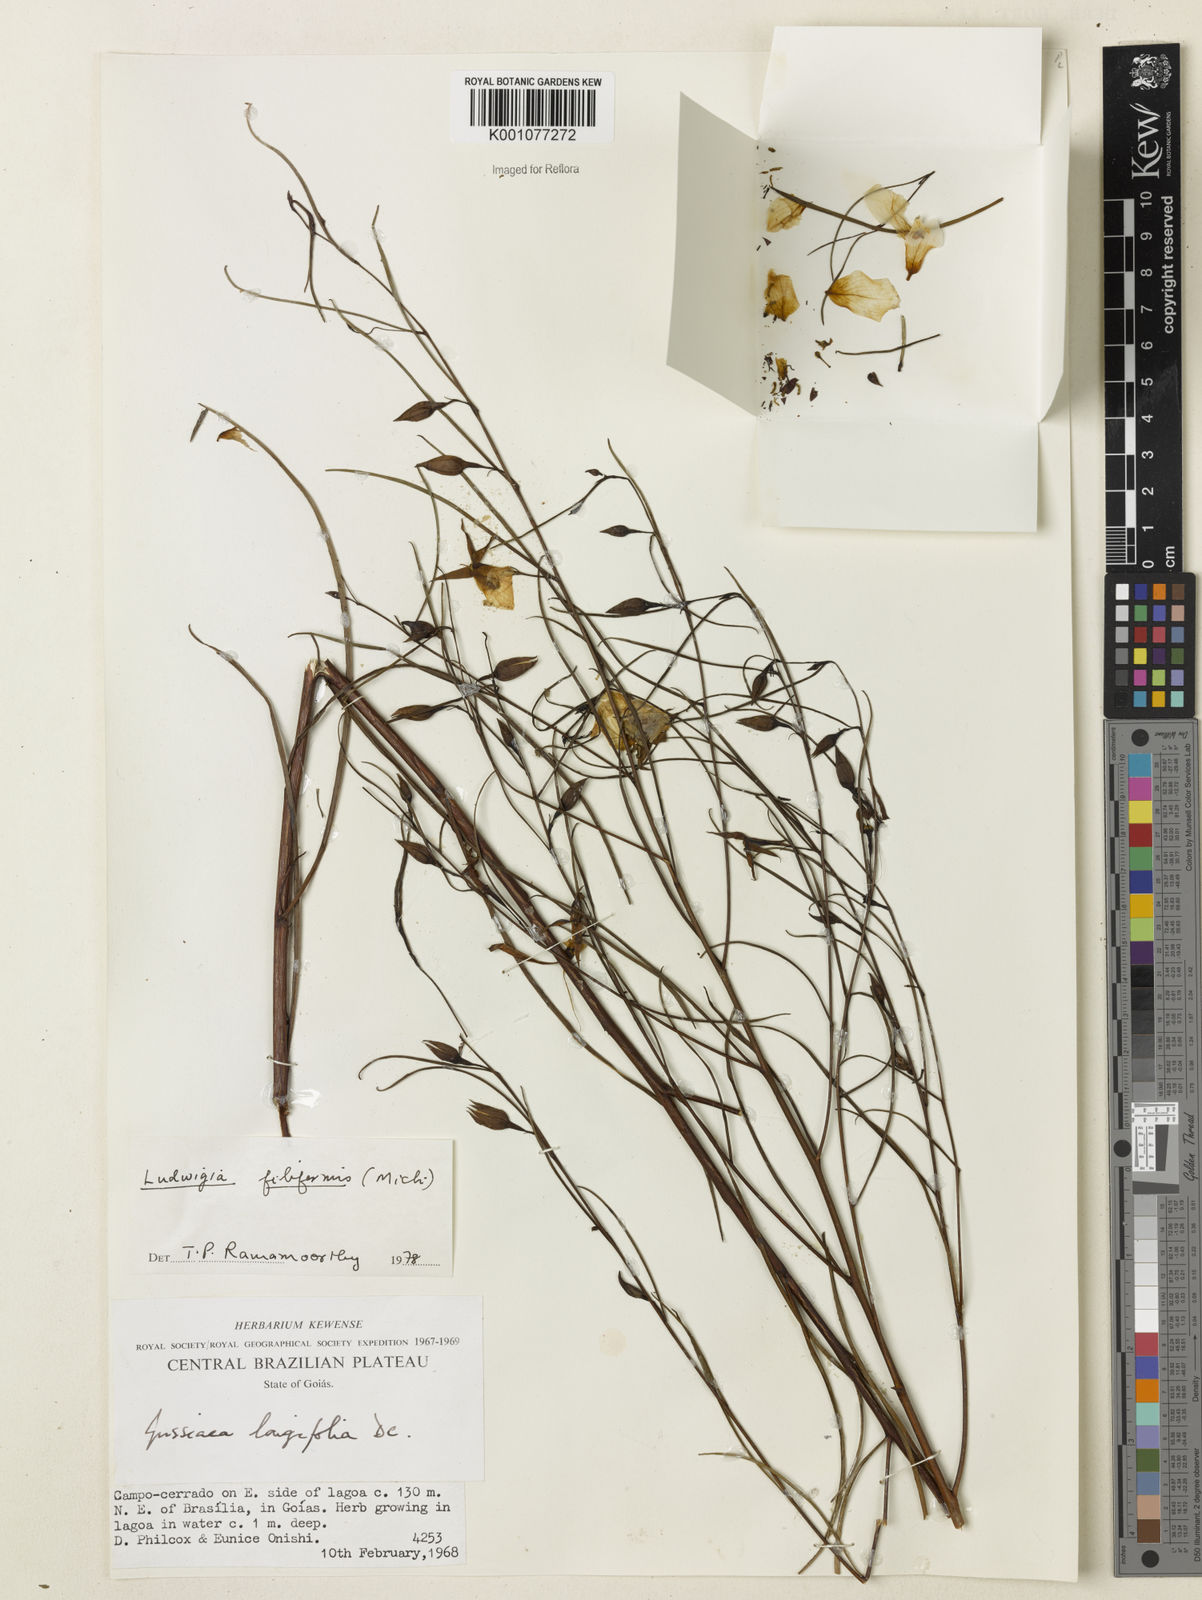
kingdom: Plantae
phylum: Tracheophyta
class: Magnoliopsida
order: Myrtales
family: Onagraceae
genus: Ludwigia
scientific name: Ludwigia filiformis
